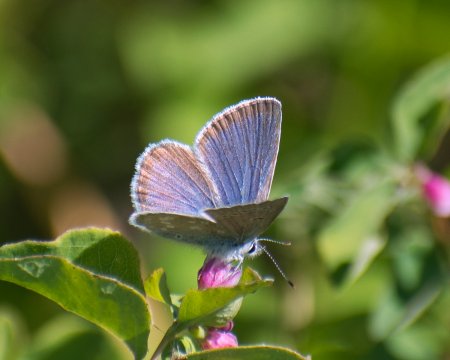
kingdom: Animalia
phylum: Arthropoda
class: Insecta
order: Lepidoptera
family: Lycaenidae
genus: Icaricia
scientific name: Icaricia icarioides
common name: Boisduval's Blue
